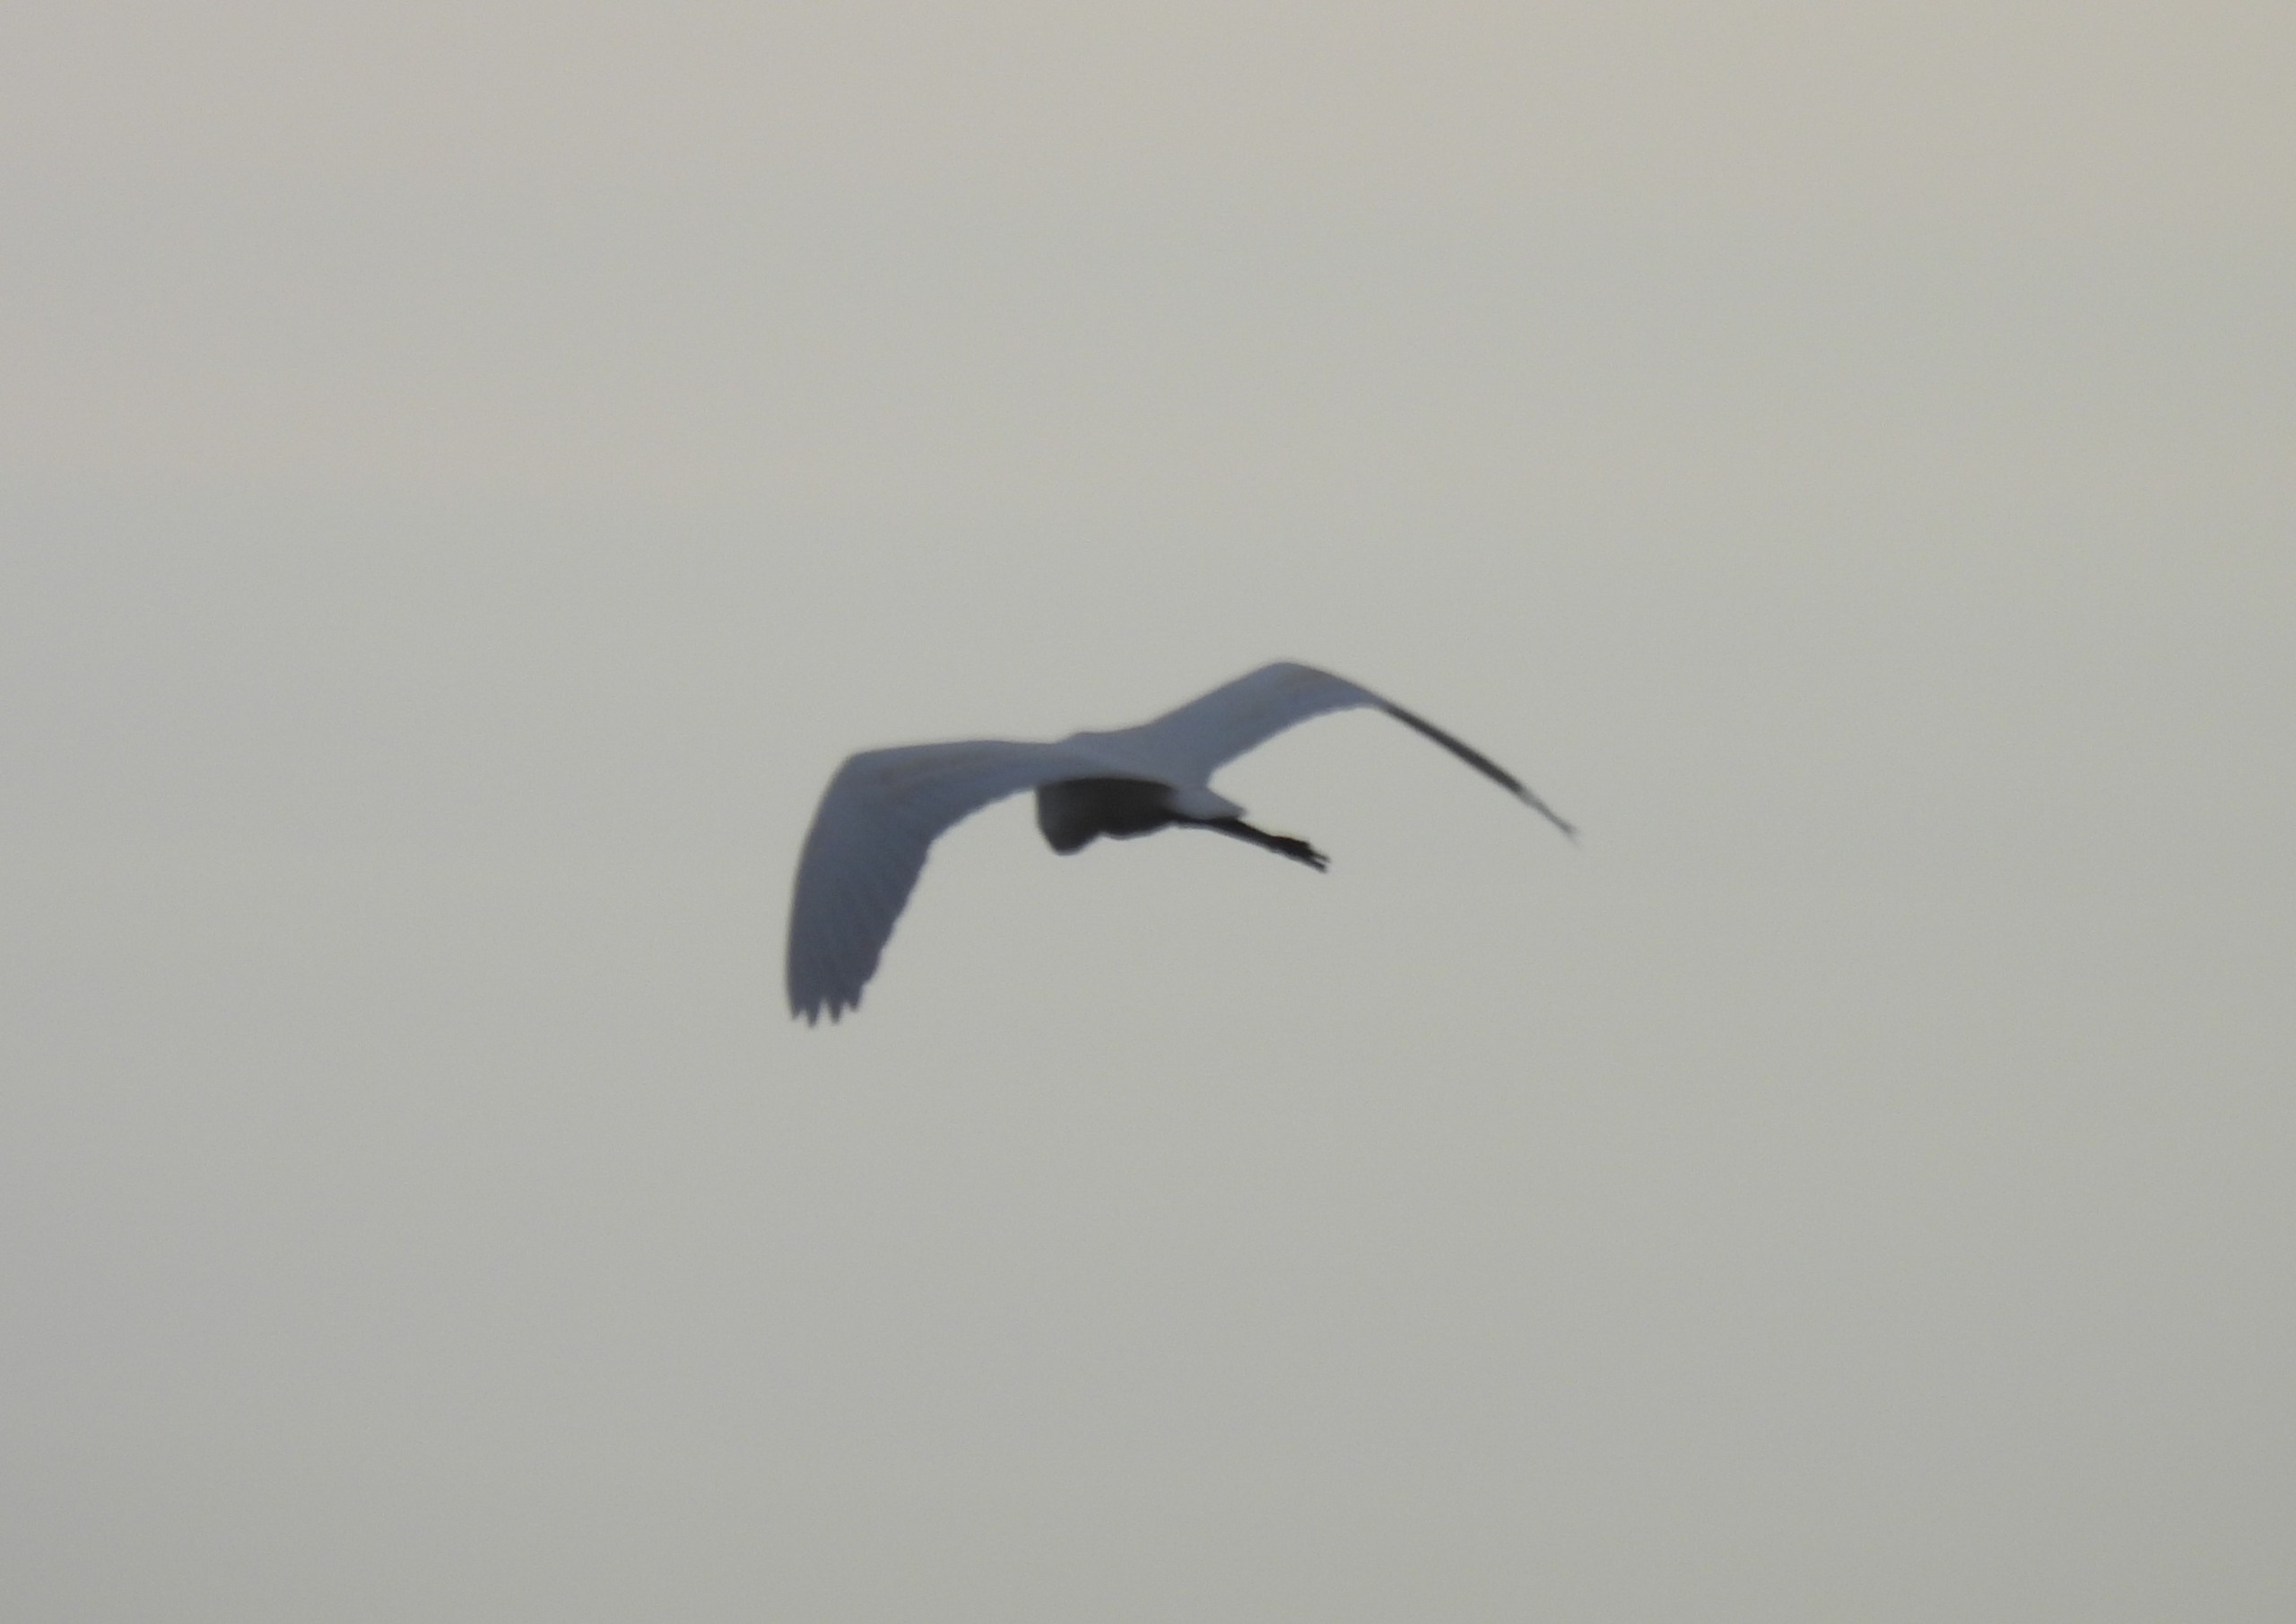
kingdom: Animalia
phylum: Chordata
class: Aves
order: Pelecaniformes
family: Ardeidae
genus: Ardea
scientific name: Ardea alba
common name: Sølvhejre
